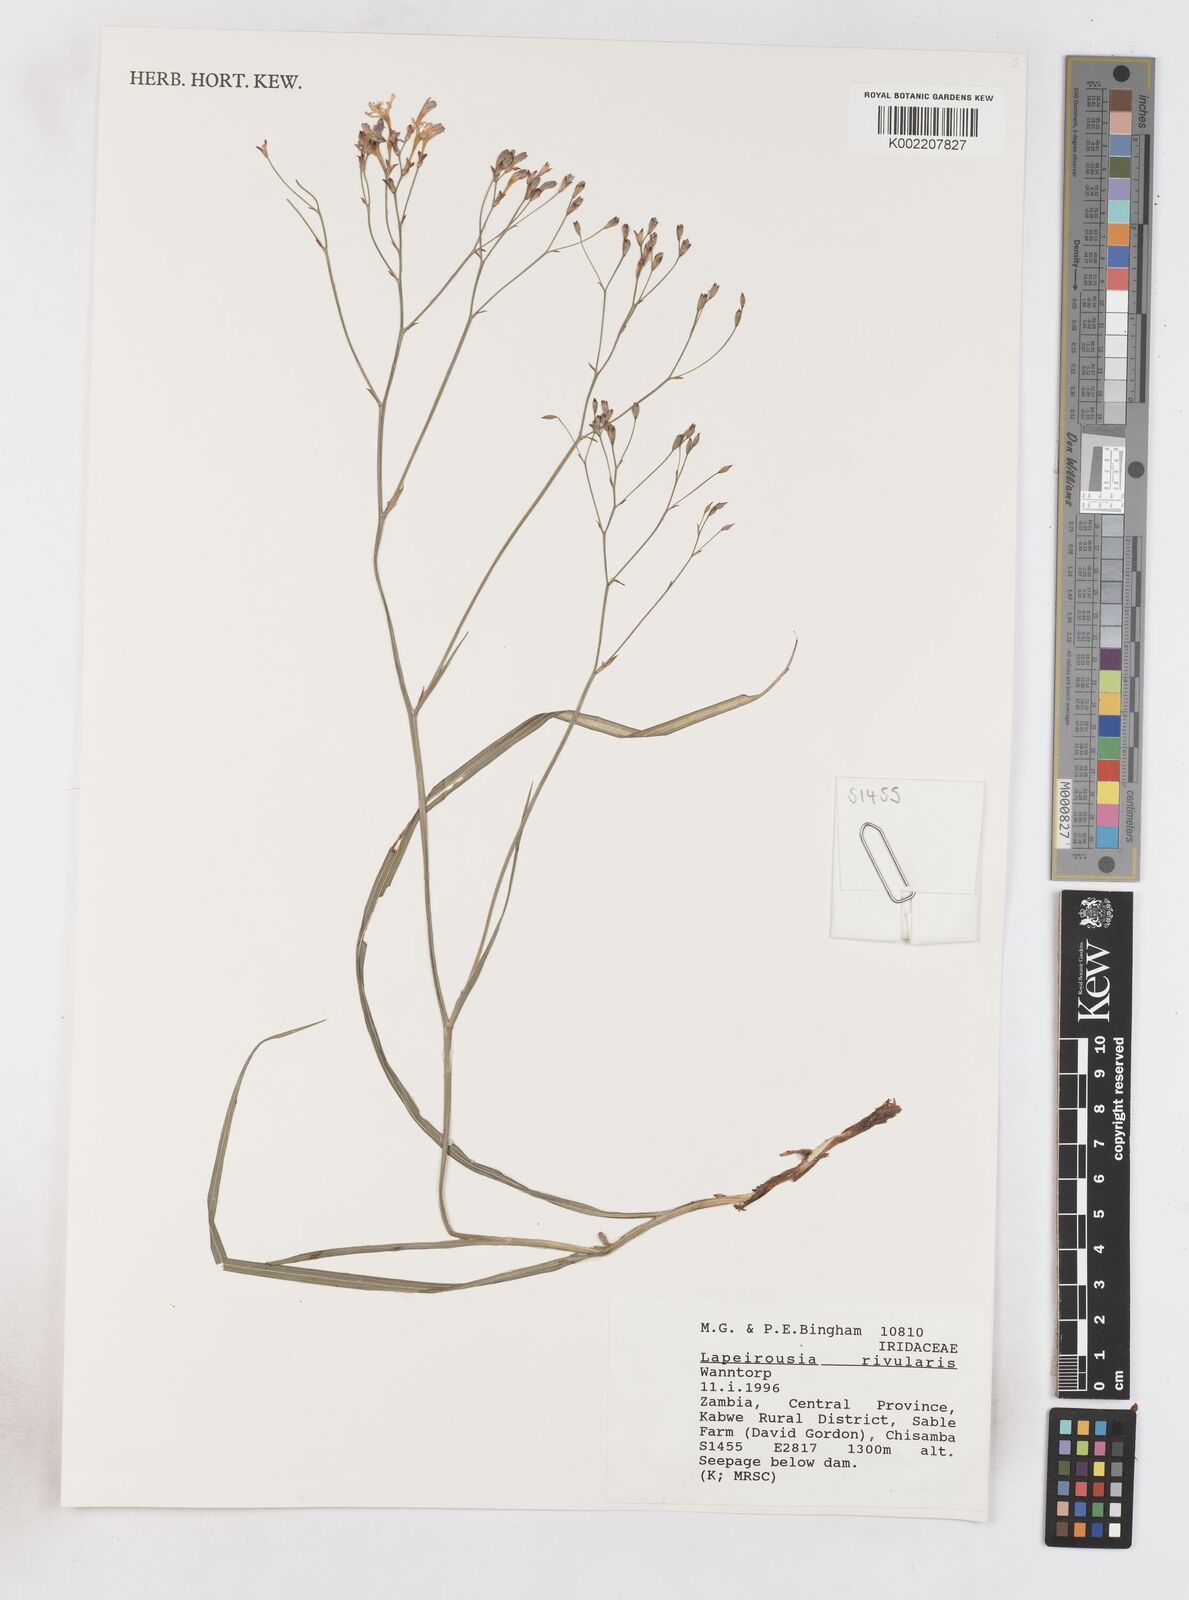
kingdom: Plantae
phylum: Tracheophyta
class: Liliopsida
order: Asparagales
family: Iridaceae
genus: Afrosolen
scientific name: Afrosolen rivularis
